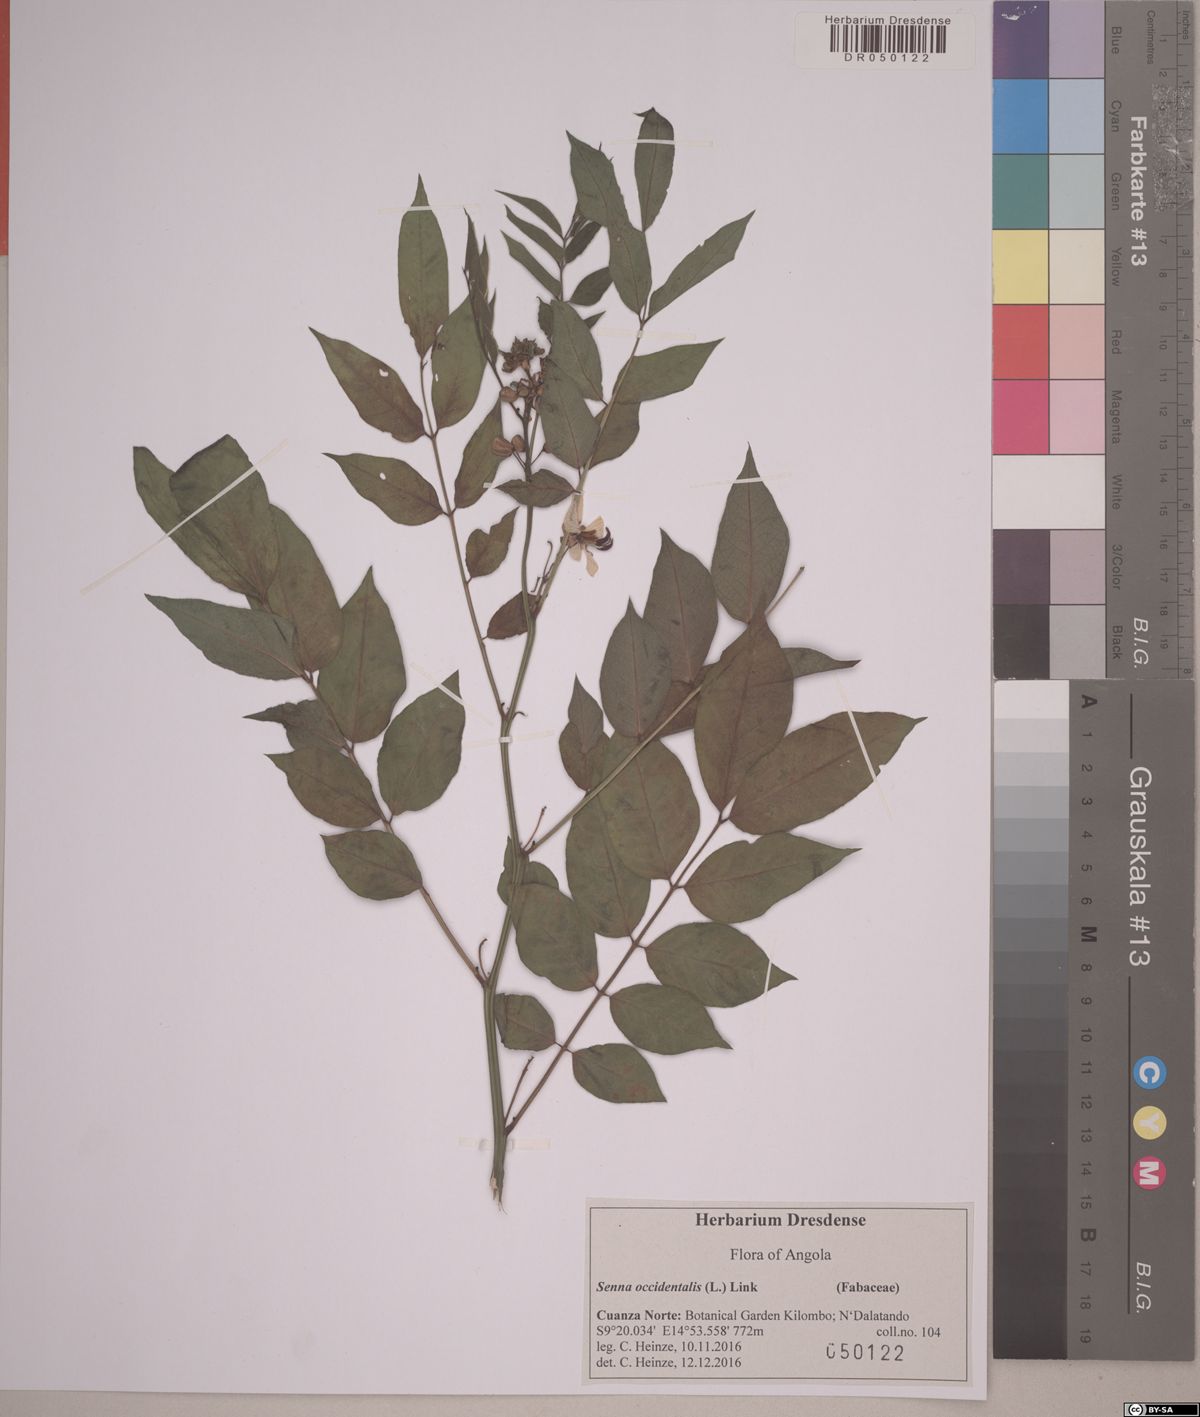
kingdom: Plantae
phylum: Tracheophyta
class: Magnoliopsida
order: Fabales
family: Fabaceae
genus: Senna
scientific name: Senna occidentalis
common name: Septicweed
